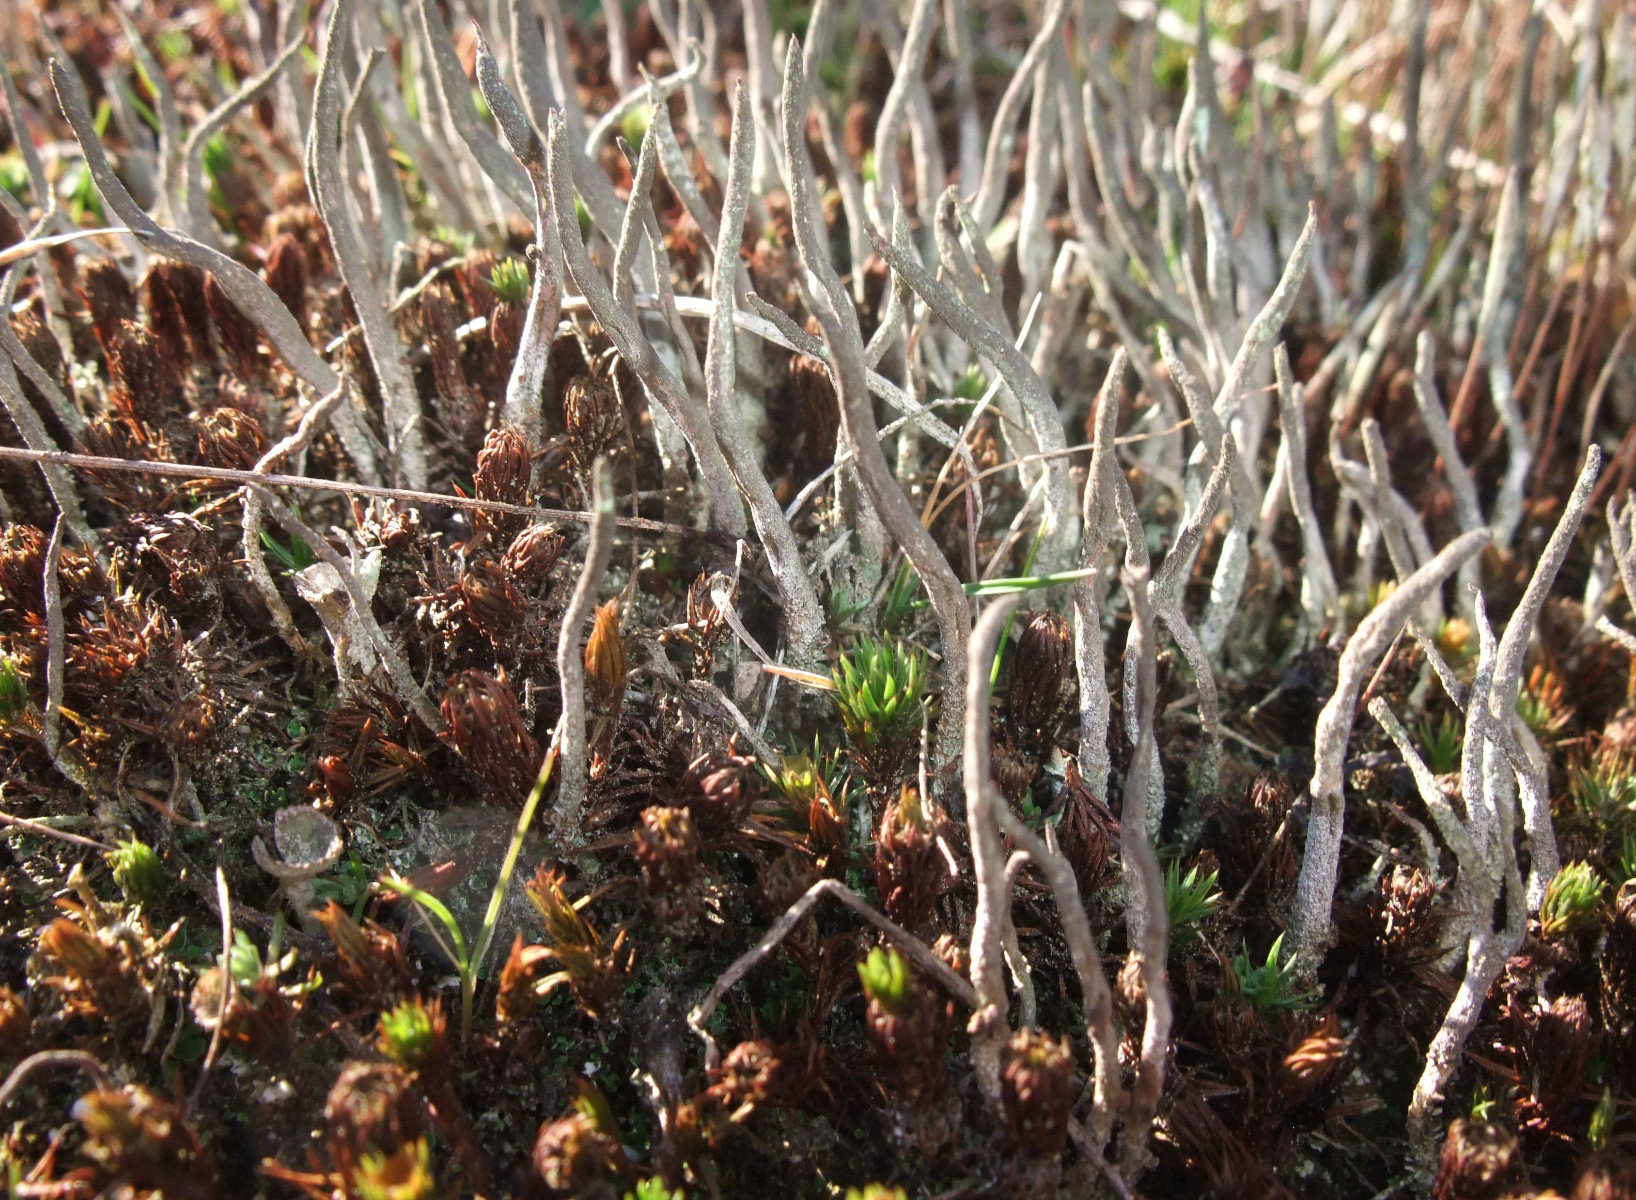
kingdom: Fungi
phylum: Ascomycota
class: Lecanoromycetes
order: Lecanorales
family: Cladoniaceae
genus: Cladonia
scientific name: Cladonia cornuta
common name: syl-bægerlav
